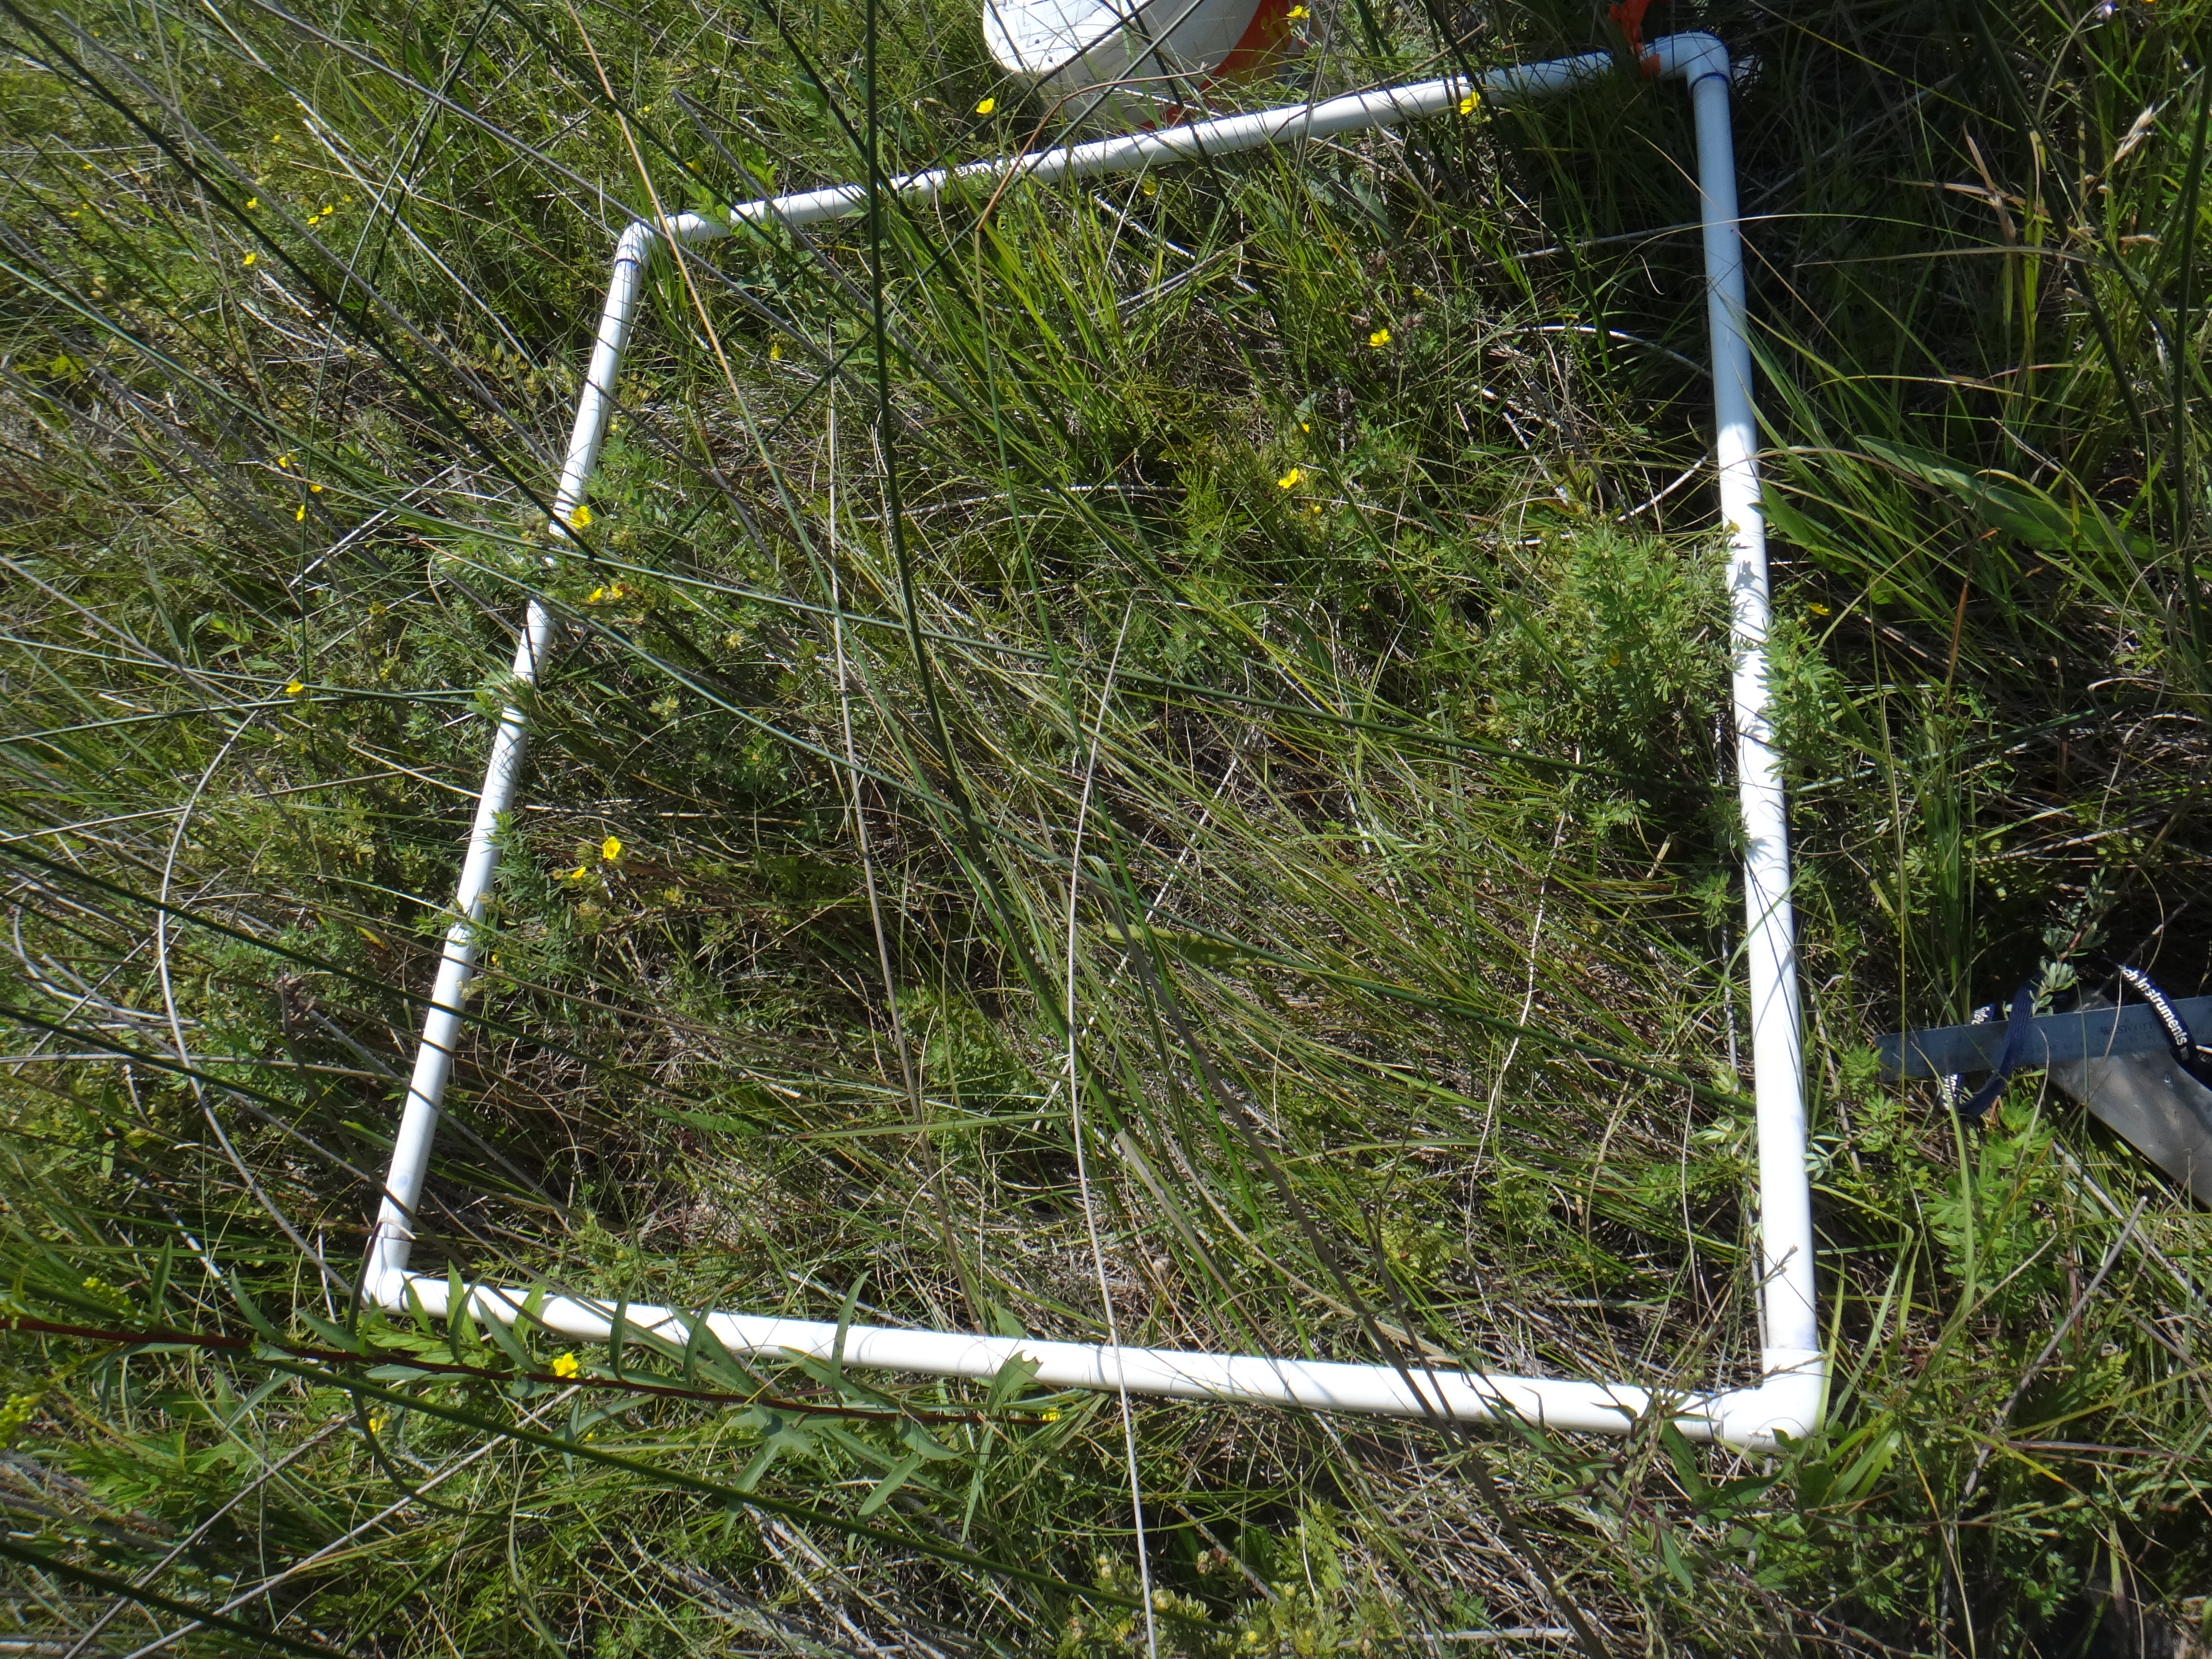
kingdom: Plantae
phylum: Tracheophyta
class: Liliopsida
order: Poales
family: Cyperaceae
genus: Carex
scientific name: Carex sterilis
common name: Dioecious sedge
